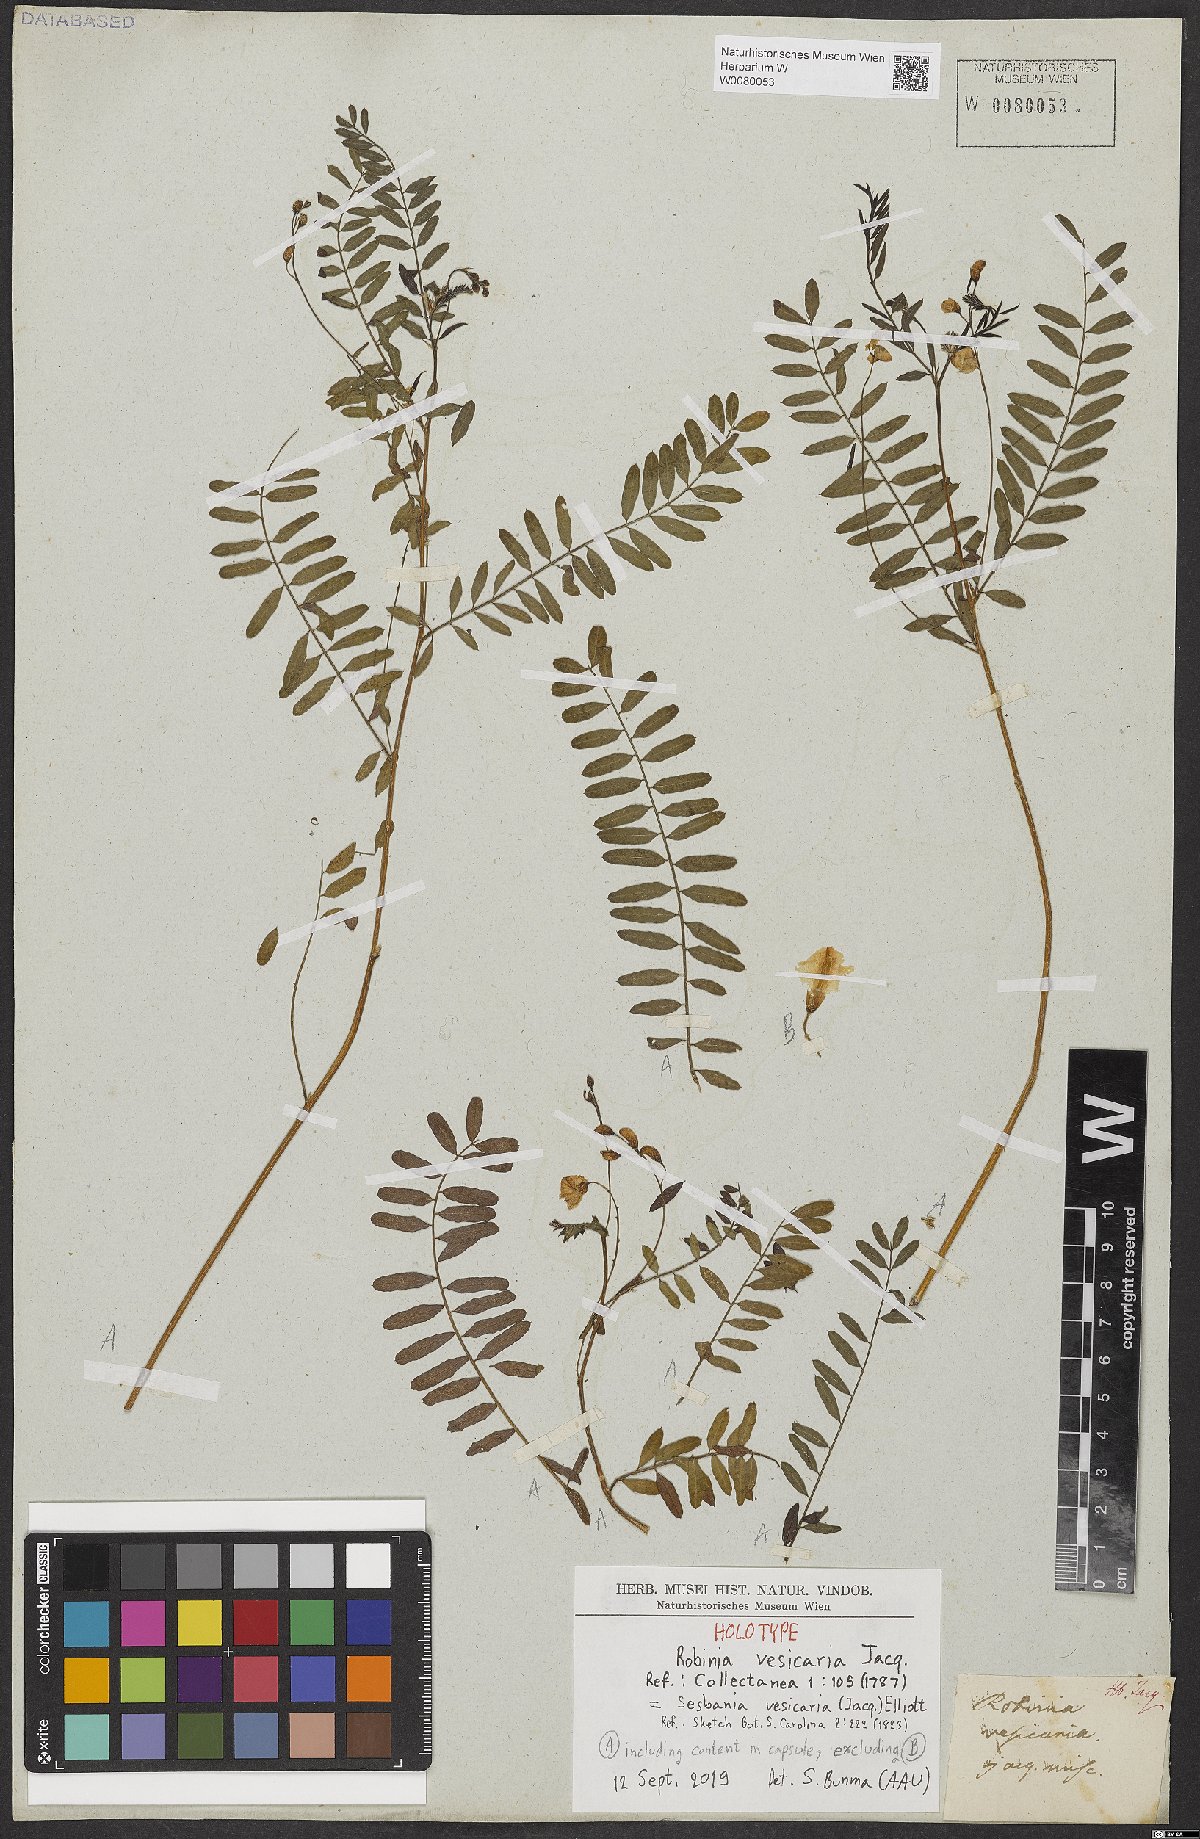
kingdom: Plantae
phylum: Tracheophyta
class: Magnoliopsida
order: Fabales
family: Fabaceae
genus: Sesbania
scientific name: Sesbania vesicaria
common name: Bagpod
